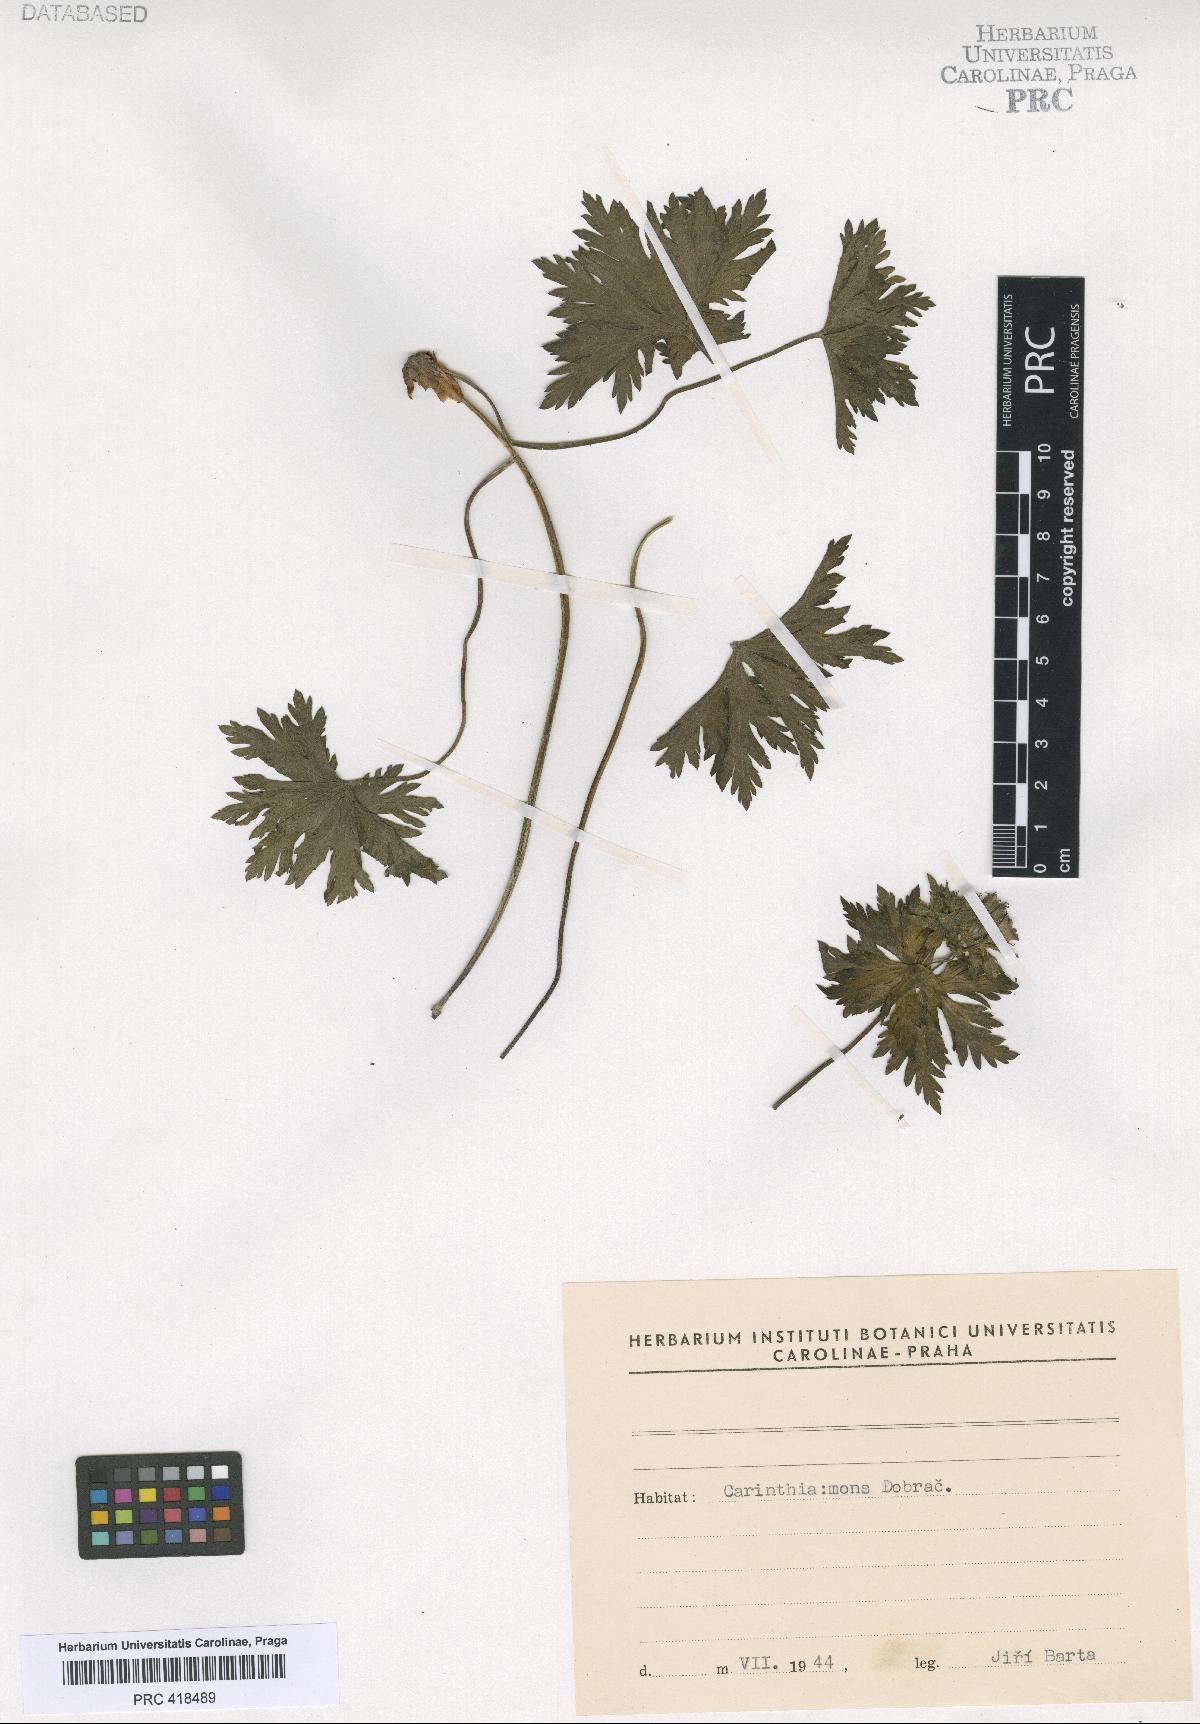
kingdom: Plantae
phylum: Tracheophyta
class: Magnoliopsida
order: Geraniales
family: Geraniaceae
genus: Geranium
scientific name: Geranium sylvaticum
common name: Wood crane's-bill
